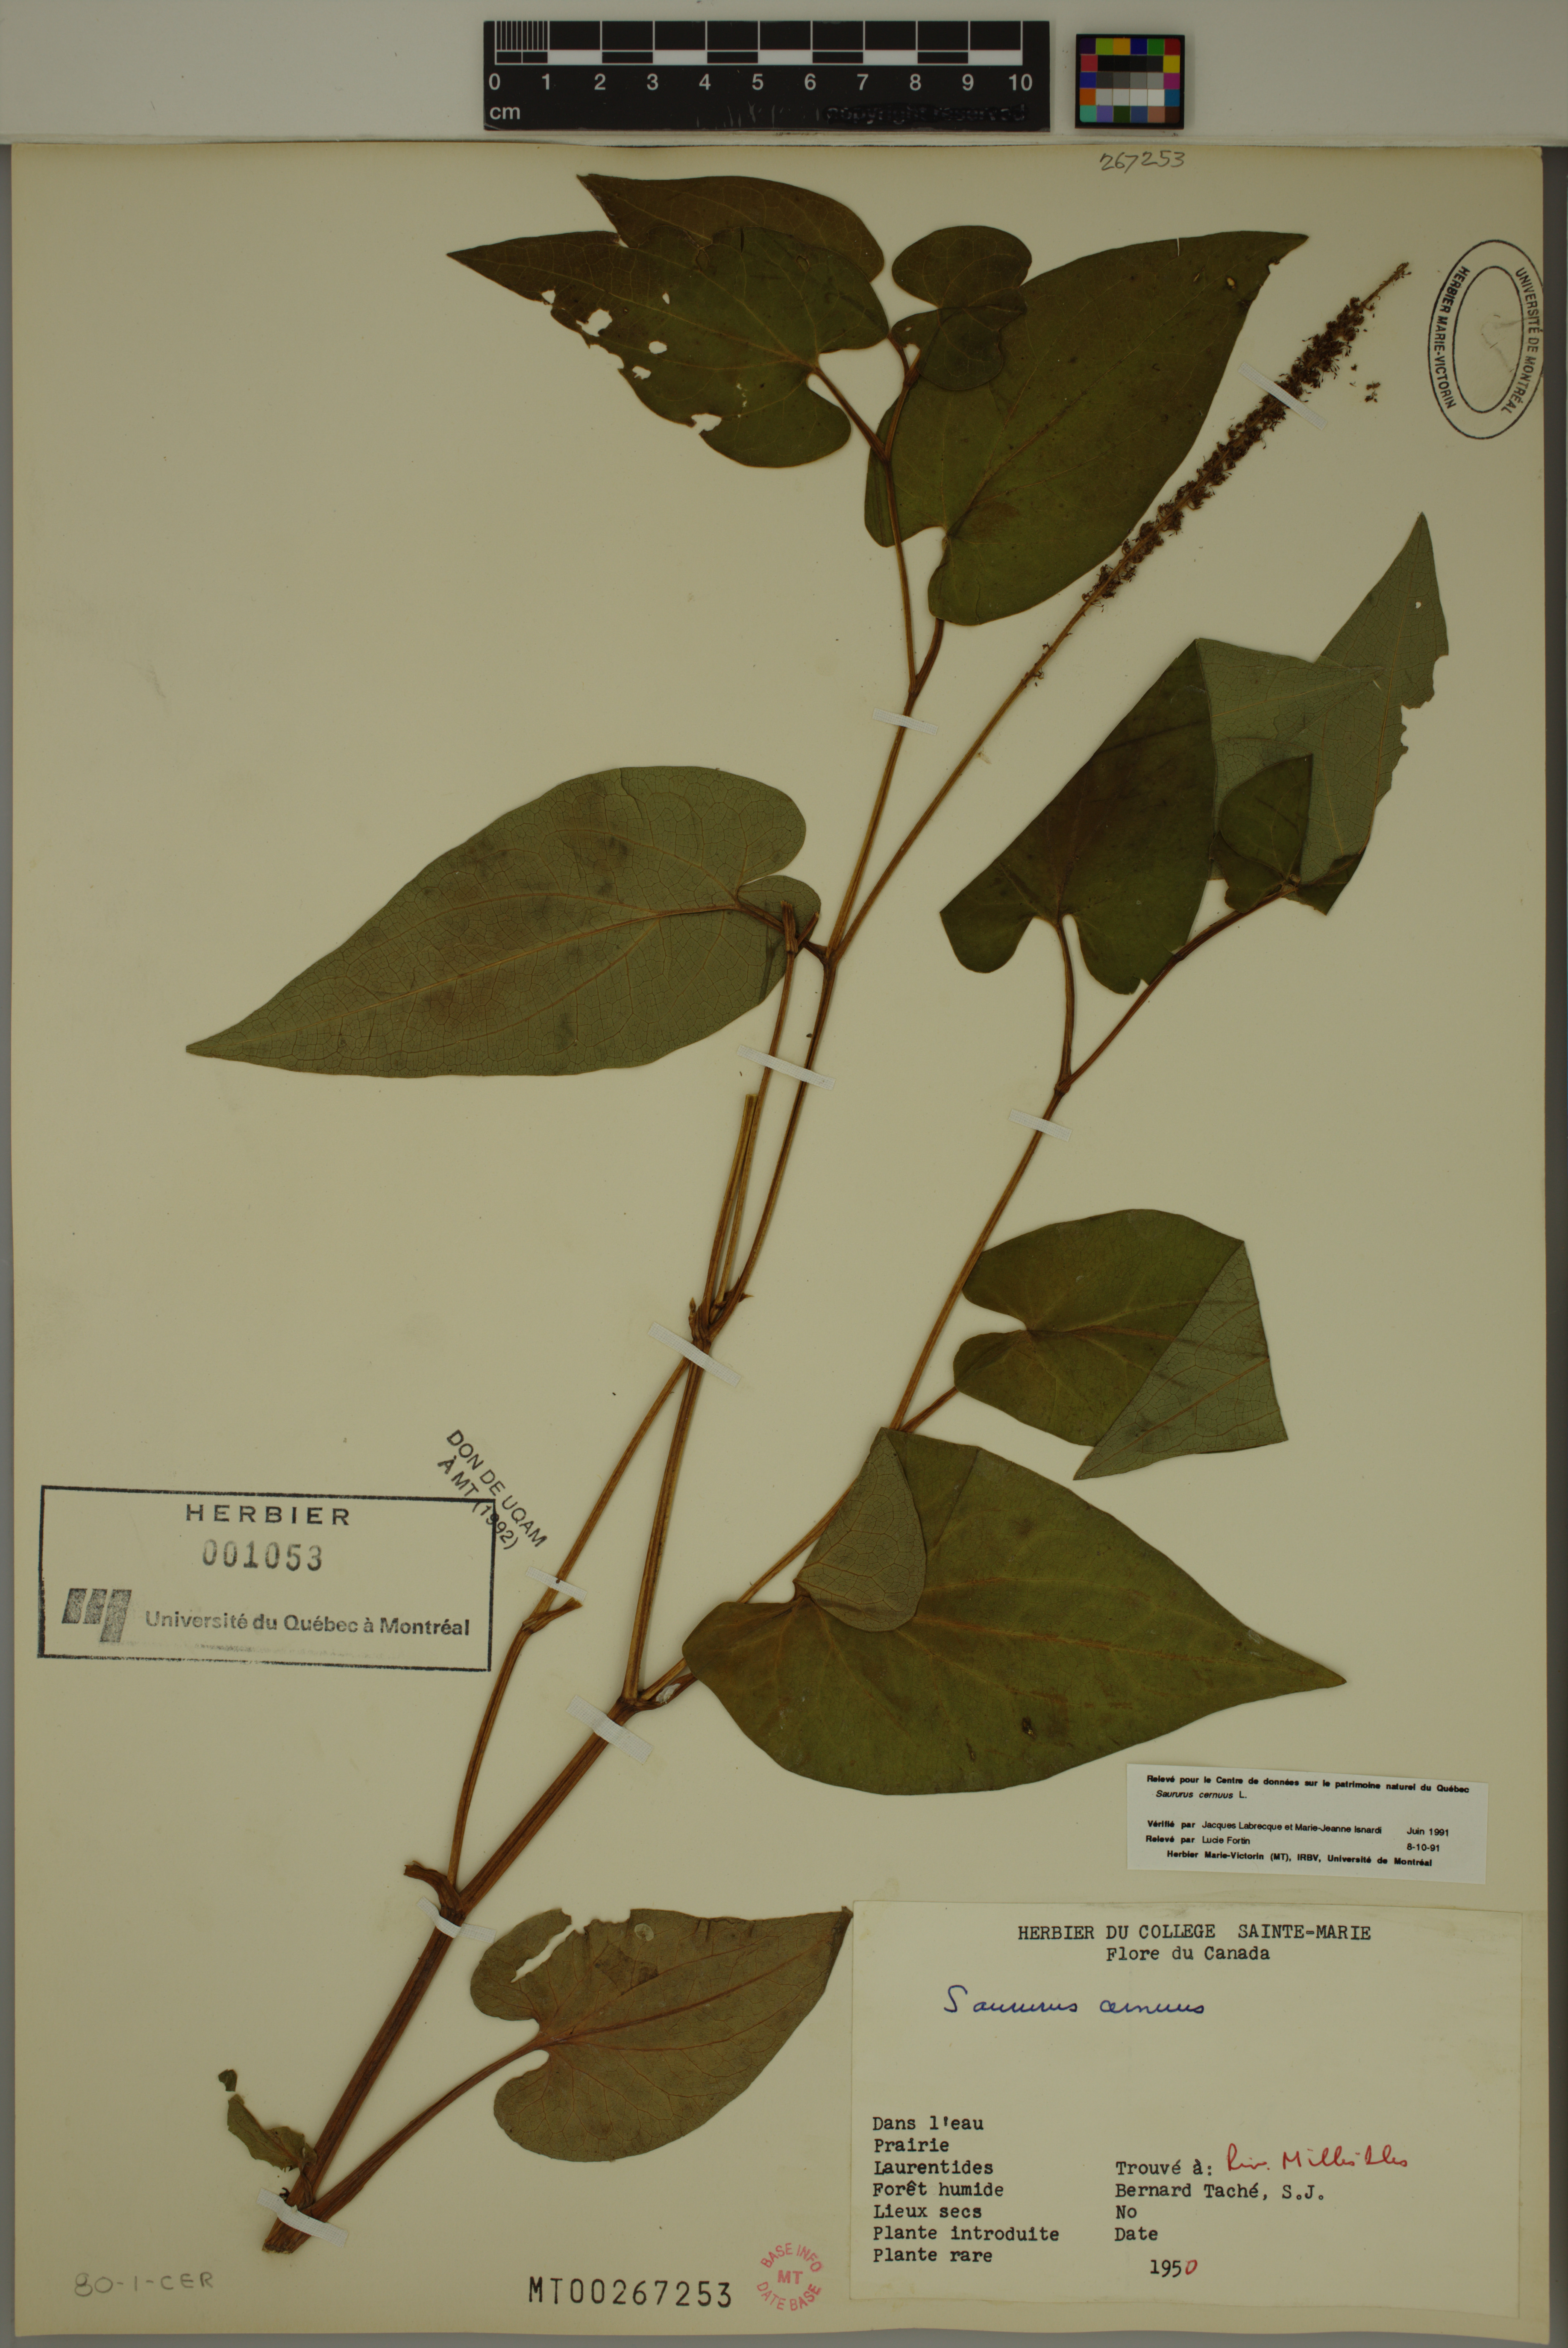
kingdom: Plantae
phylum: Tracheophyta
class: Magnoliopsida
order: Piperales
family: Saururaceae
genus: Saururus
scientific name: Saururus cernuus
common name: Lizard's-tail
